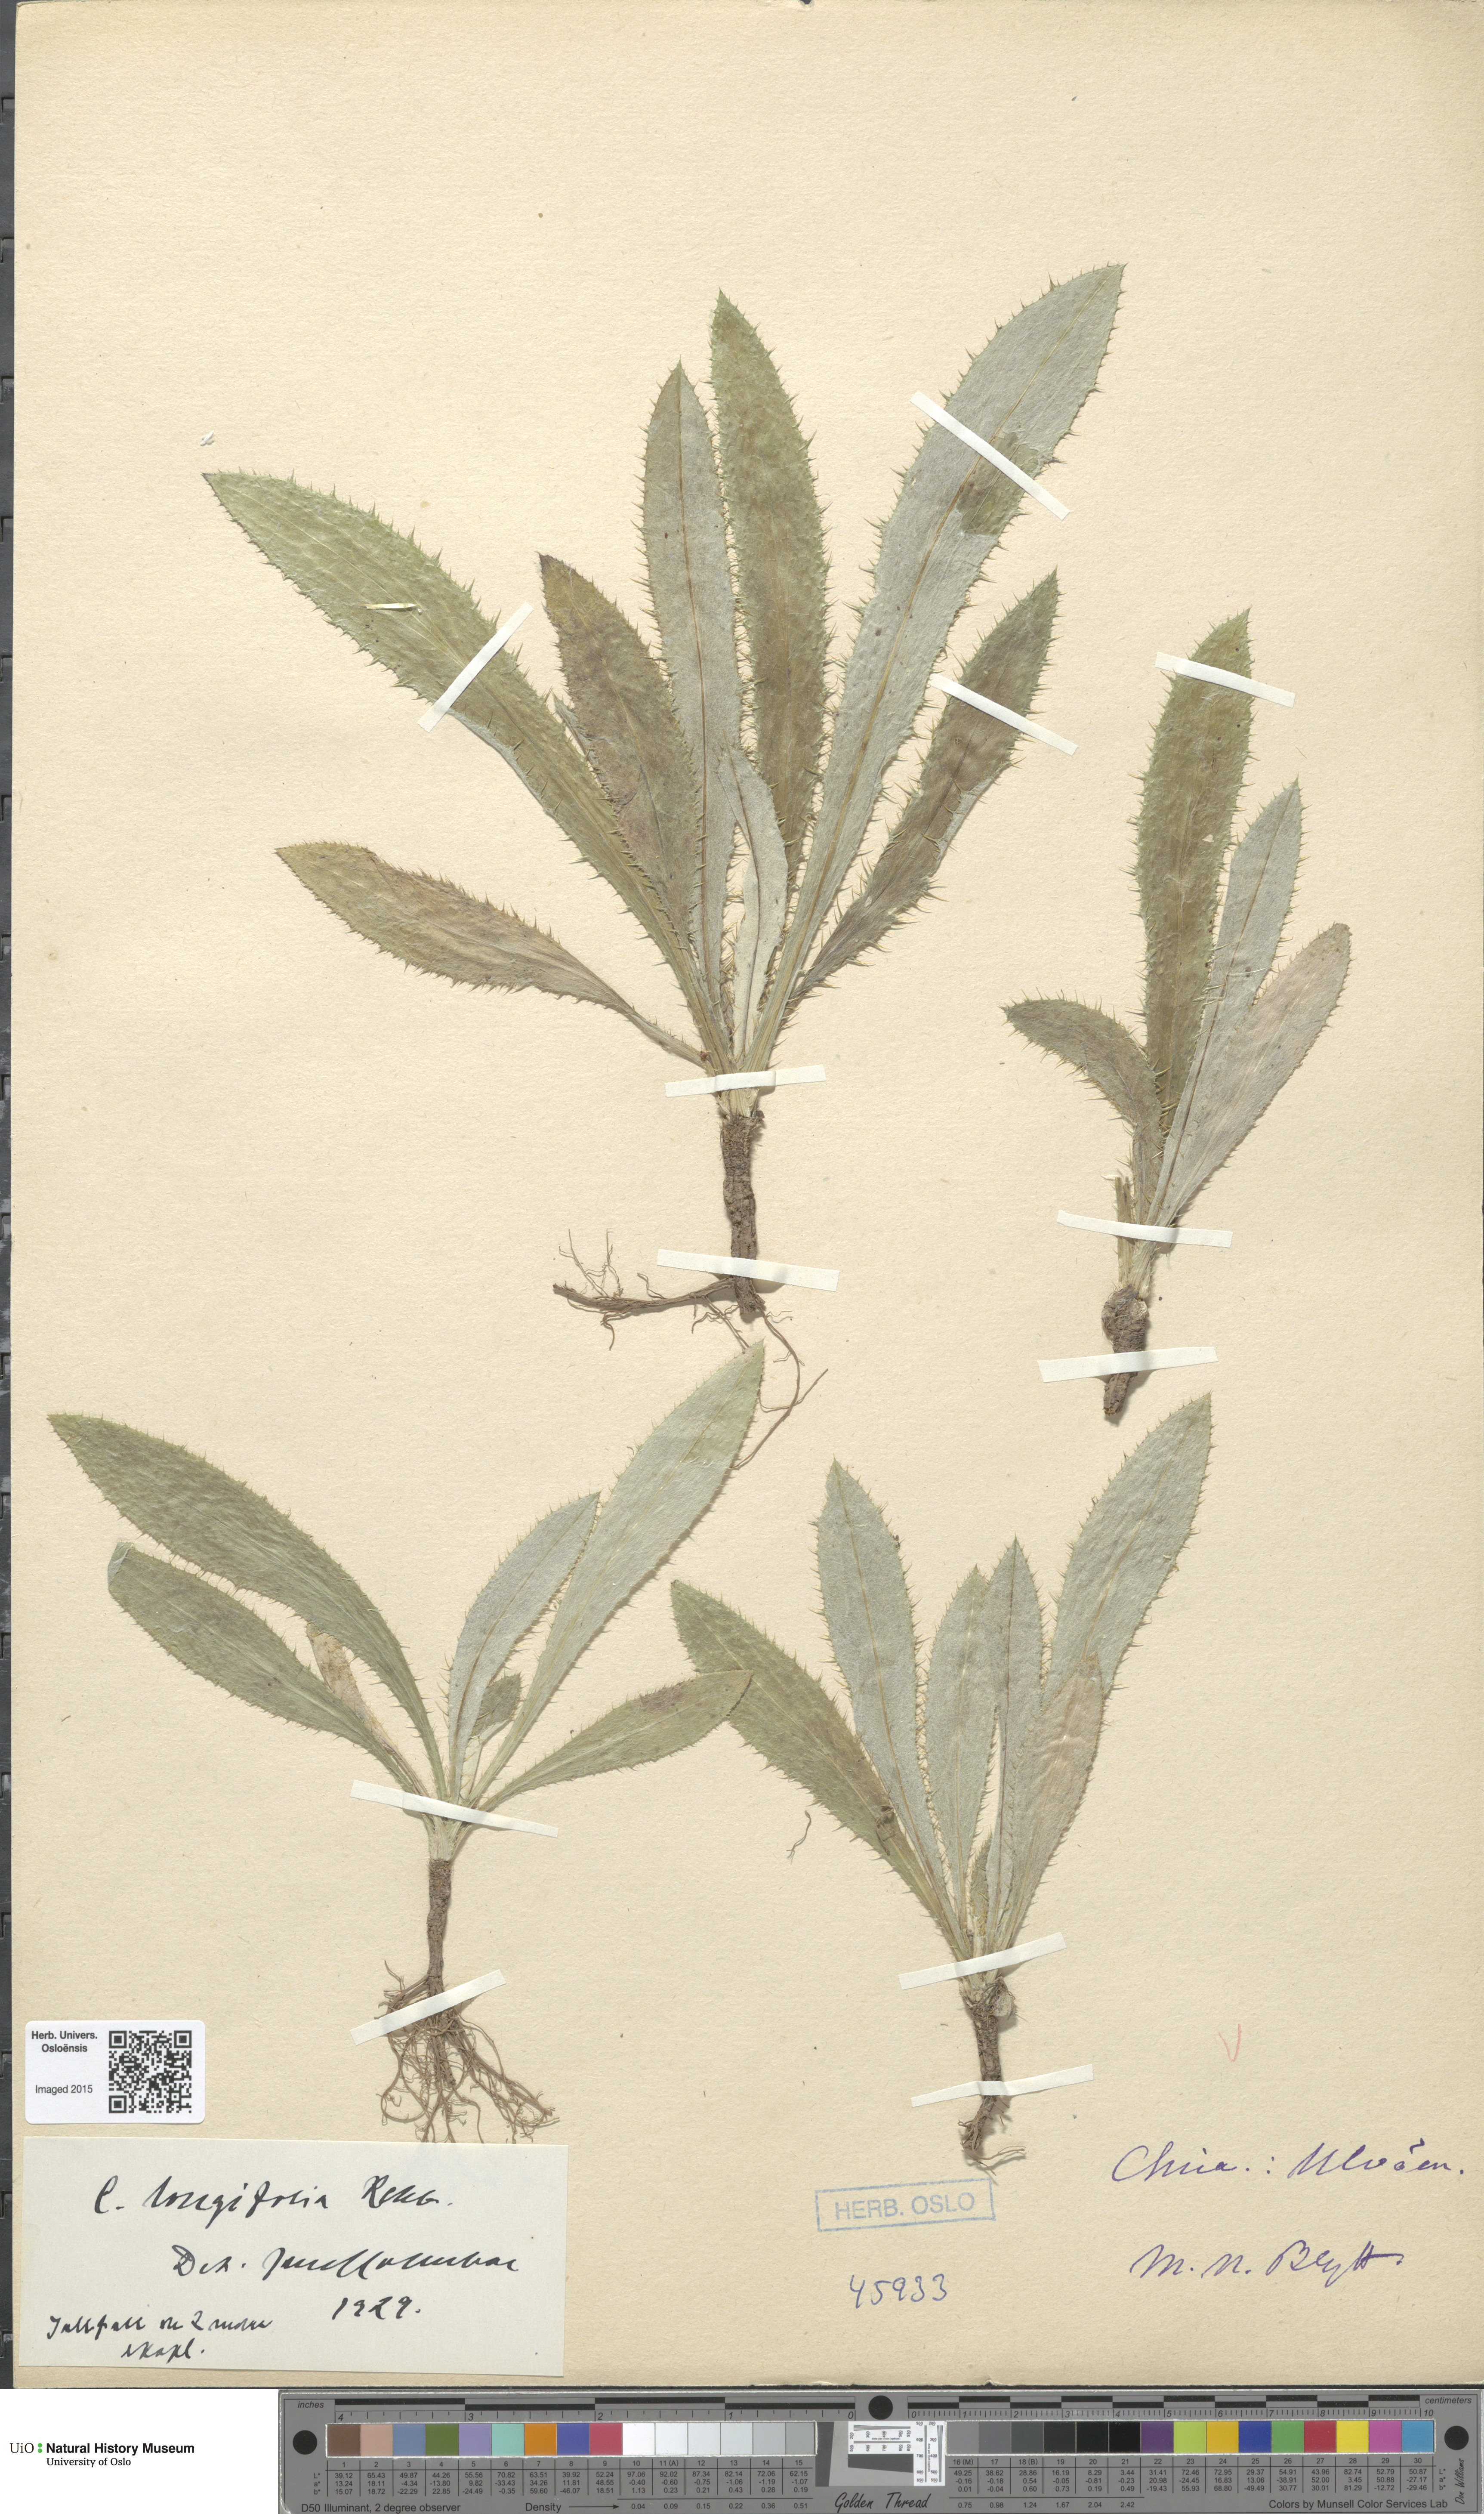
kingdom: Plantae
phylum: Tracheophyta
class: Magnoliopsida
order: Asterales
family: Asteraceae
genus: Carlina
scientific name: Carlina biebersteinii
